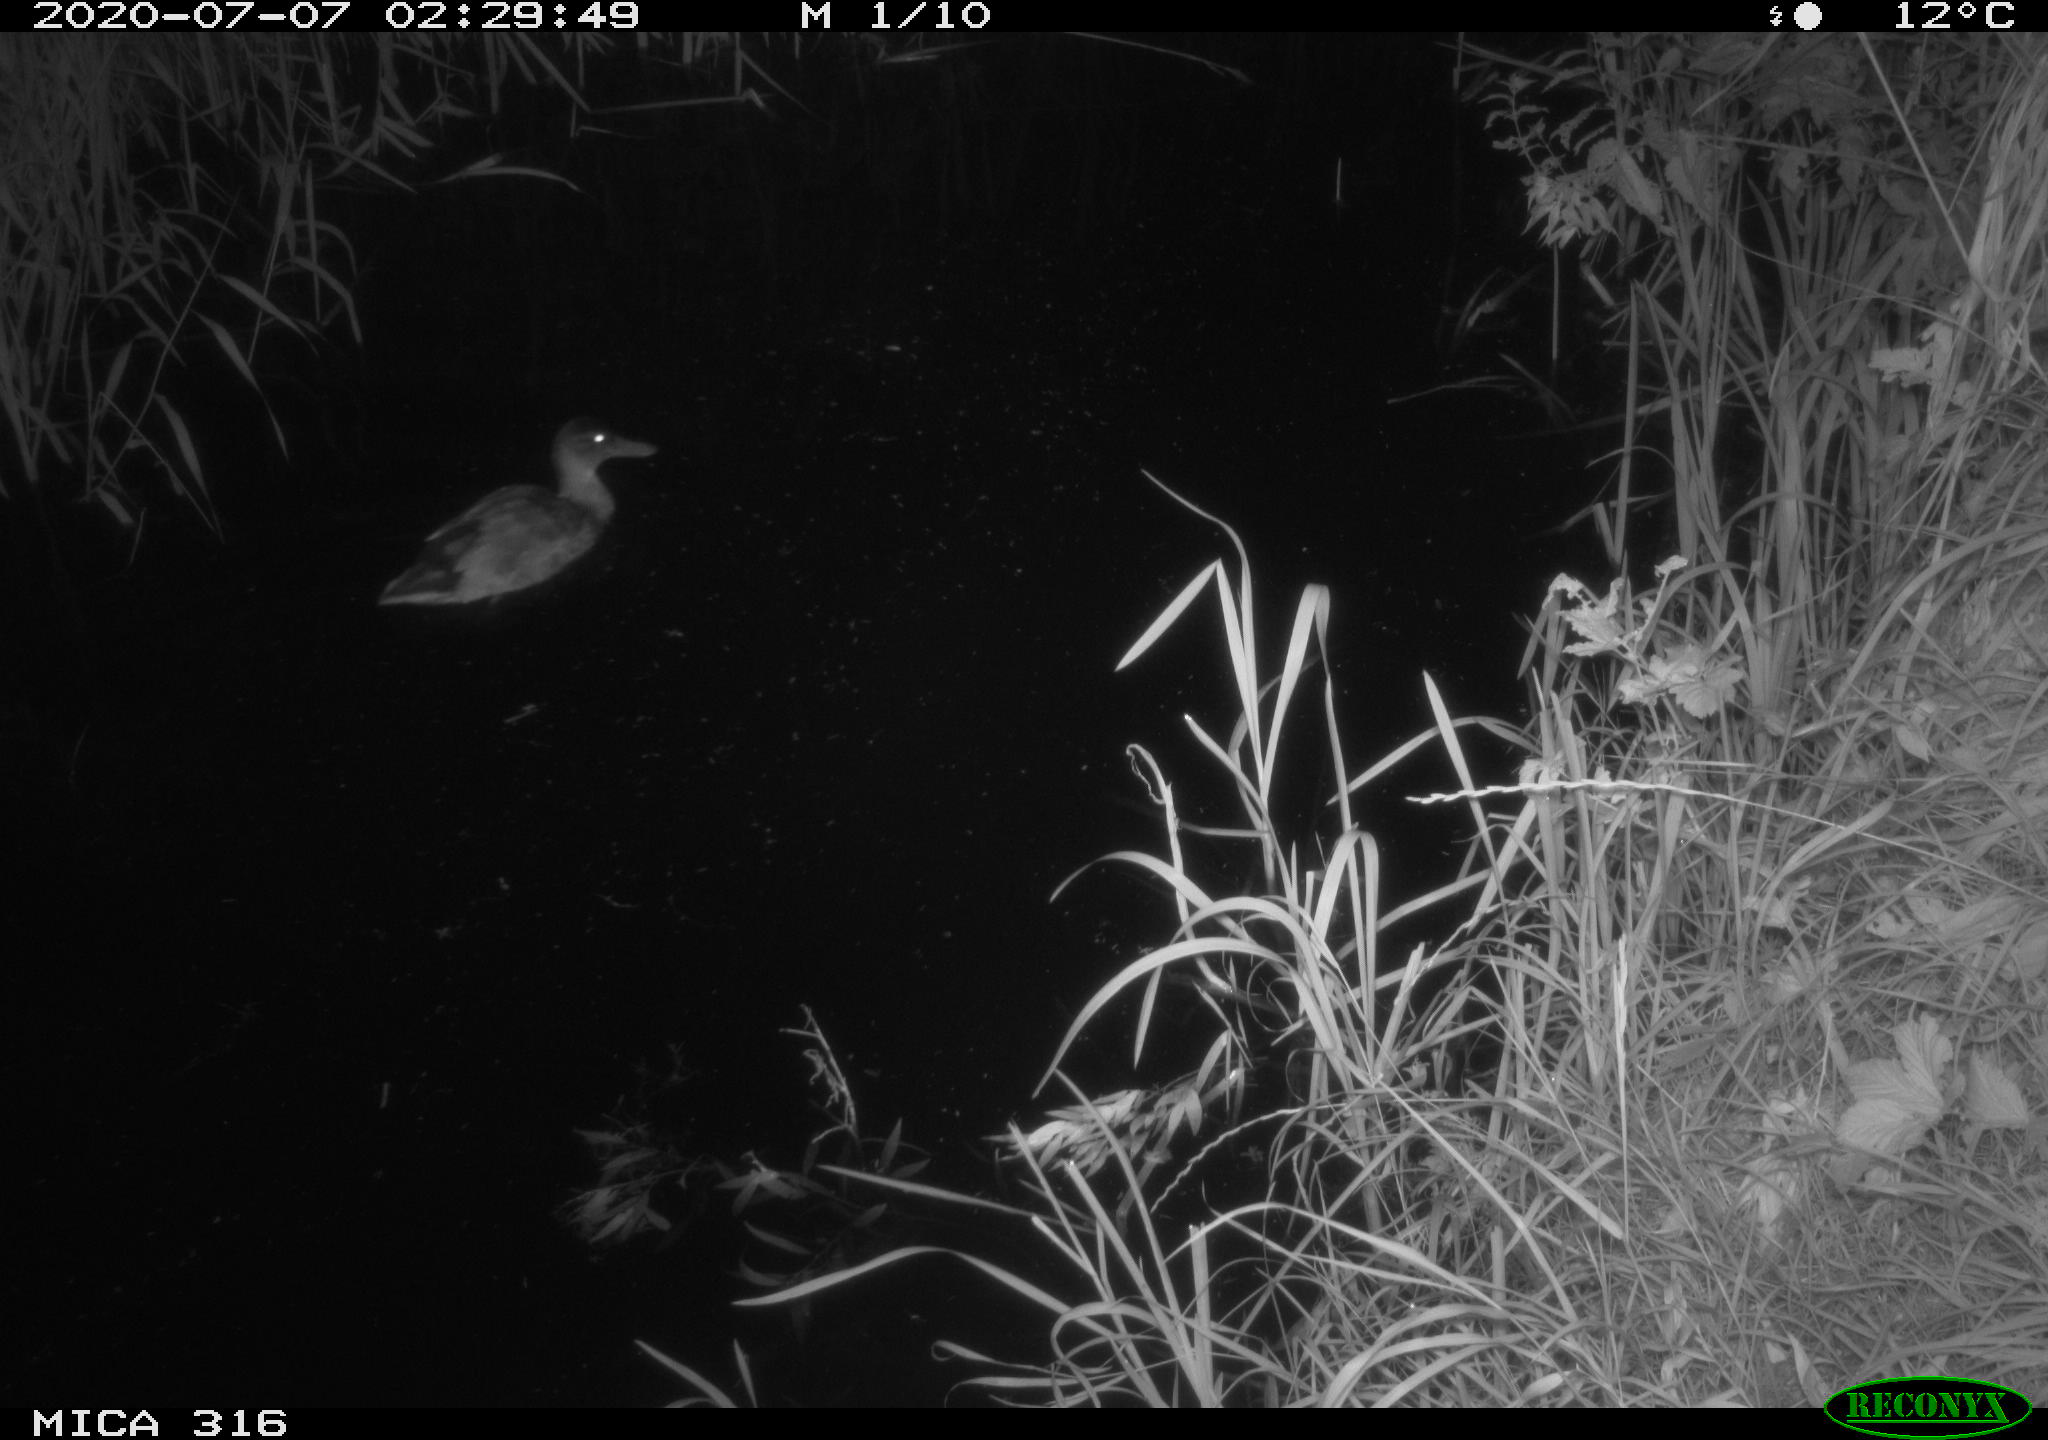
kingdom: Animalia
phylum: Chordata
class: Aves
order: Anseriformes
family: Anatidae
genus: Anas
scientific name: Anas platyrhynchos
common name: Mallard
